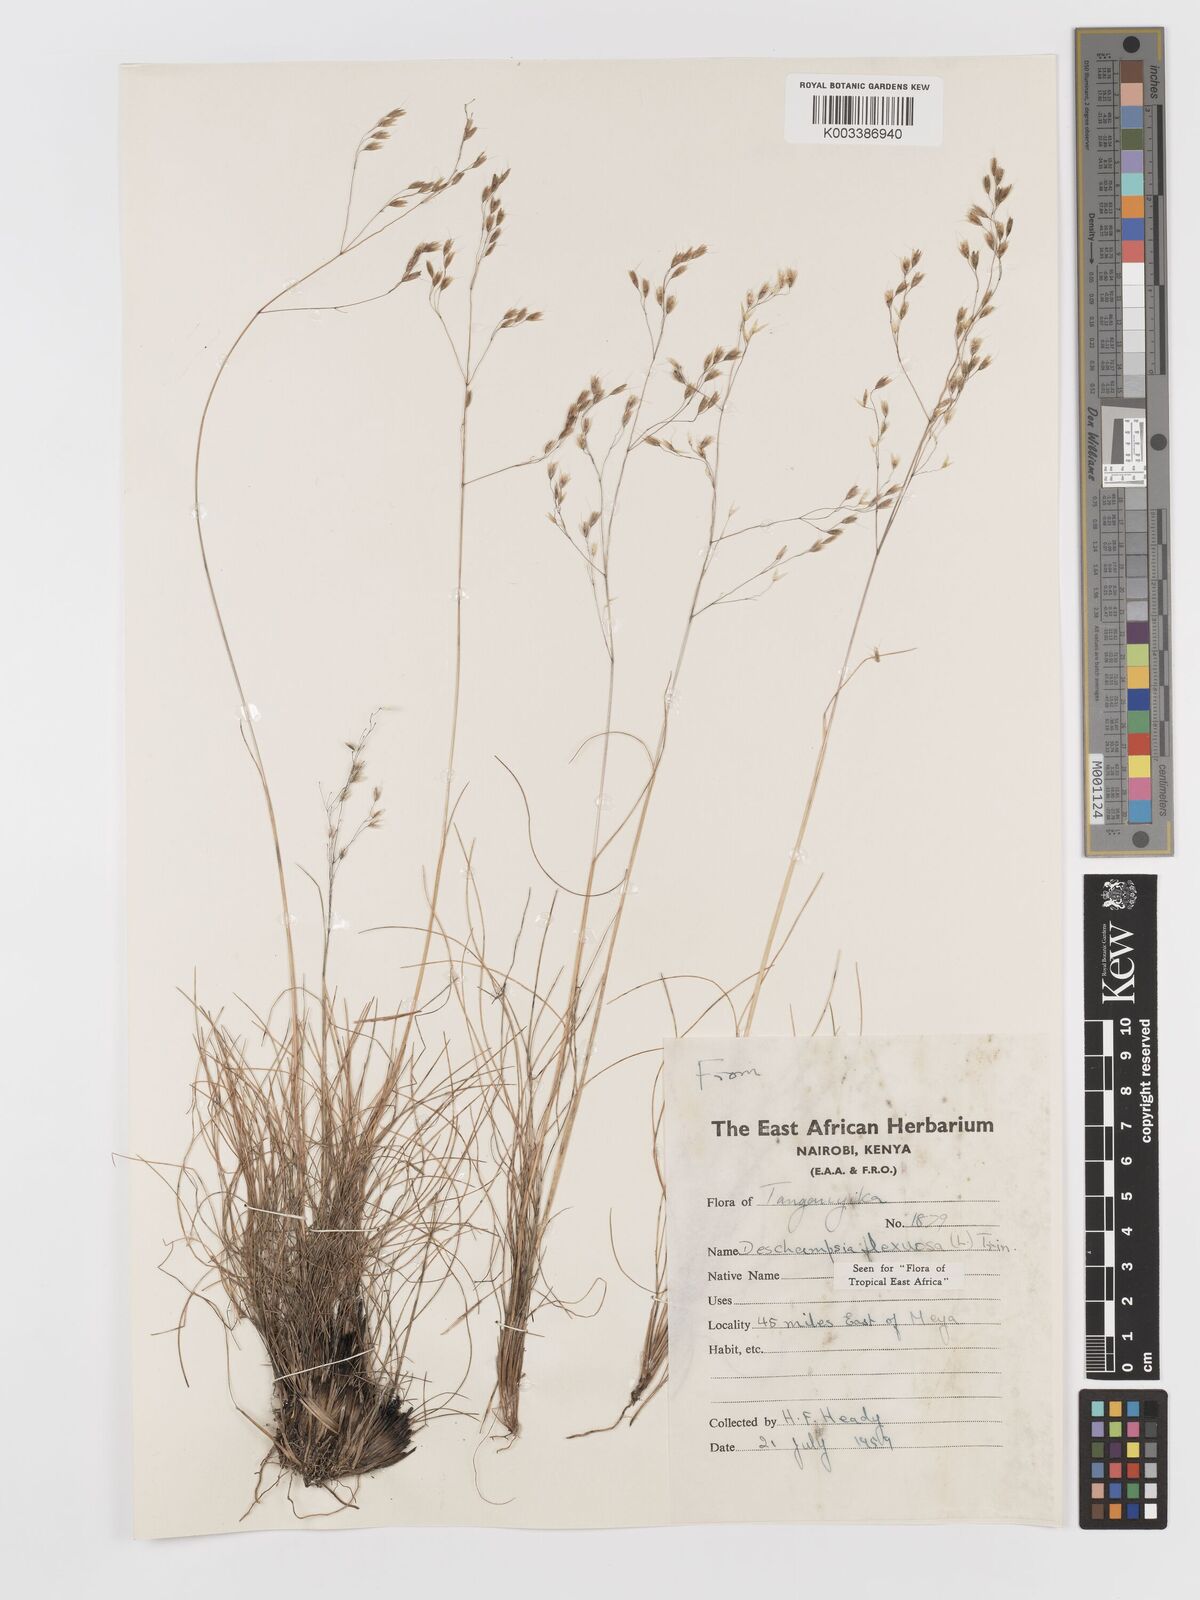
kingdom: Plantae
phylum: Tracheophyta
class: Liliopsida
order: Poales
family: Poaceae
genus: Avenella
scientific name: Avenella flexuosa
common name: Wavy hairgrass
